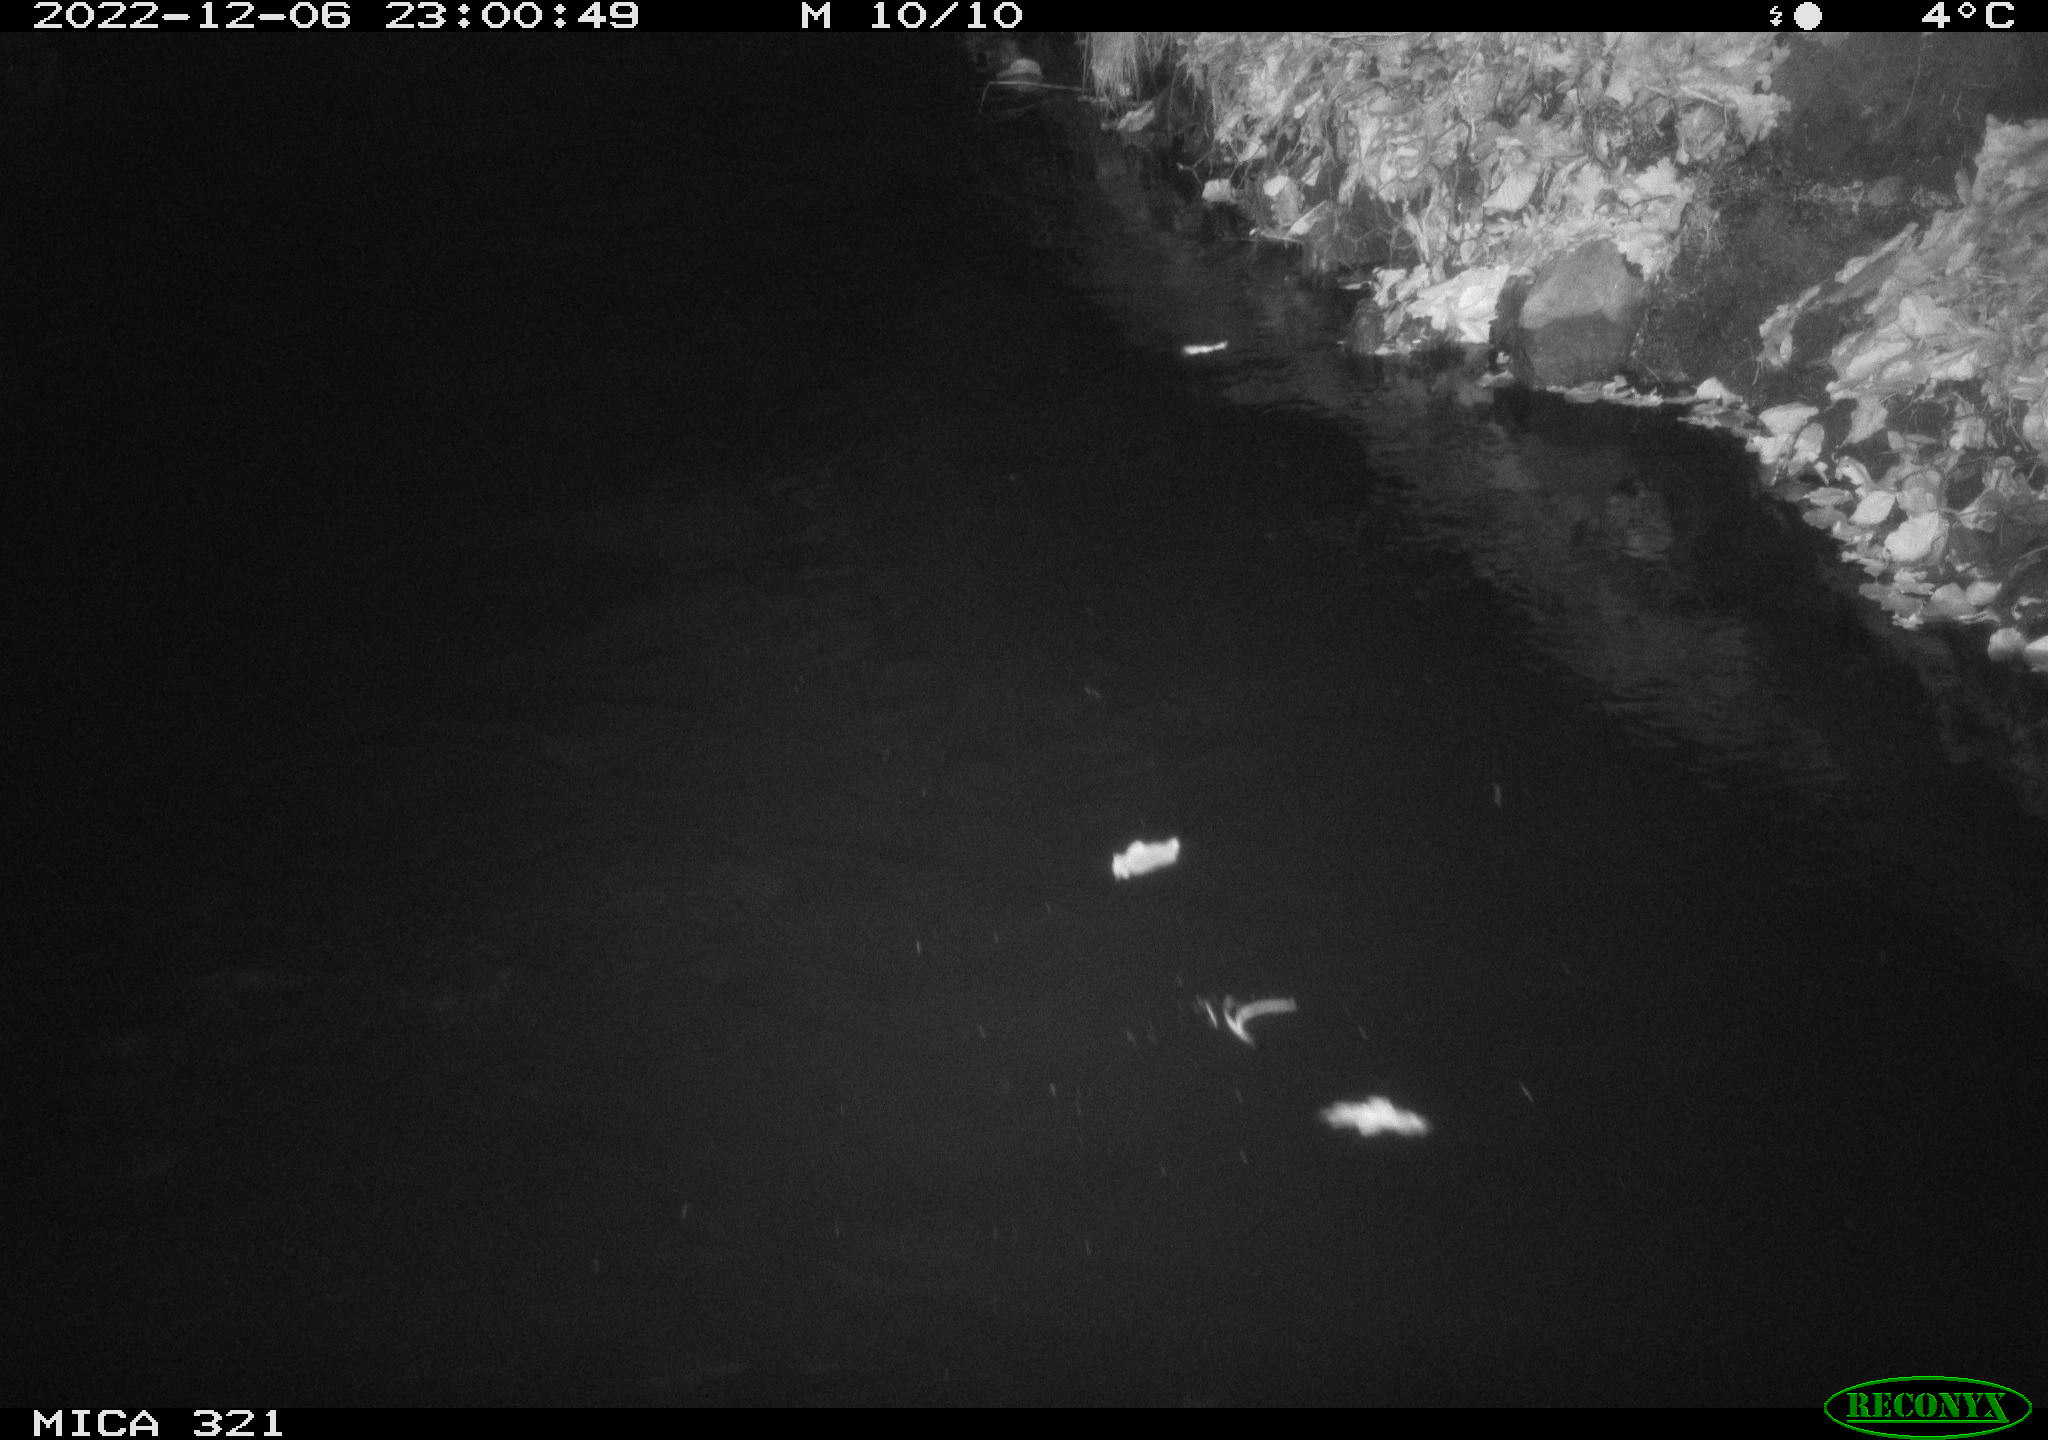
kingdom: Animalia
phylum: Chordata
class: Aves
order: Anseriformes
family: Anatidae
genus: Anas
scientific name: Anas
